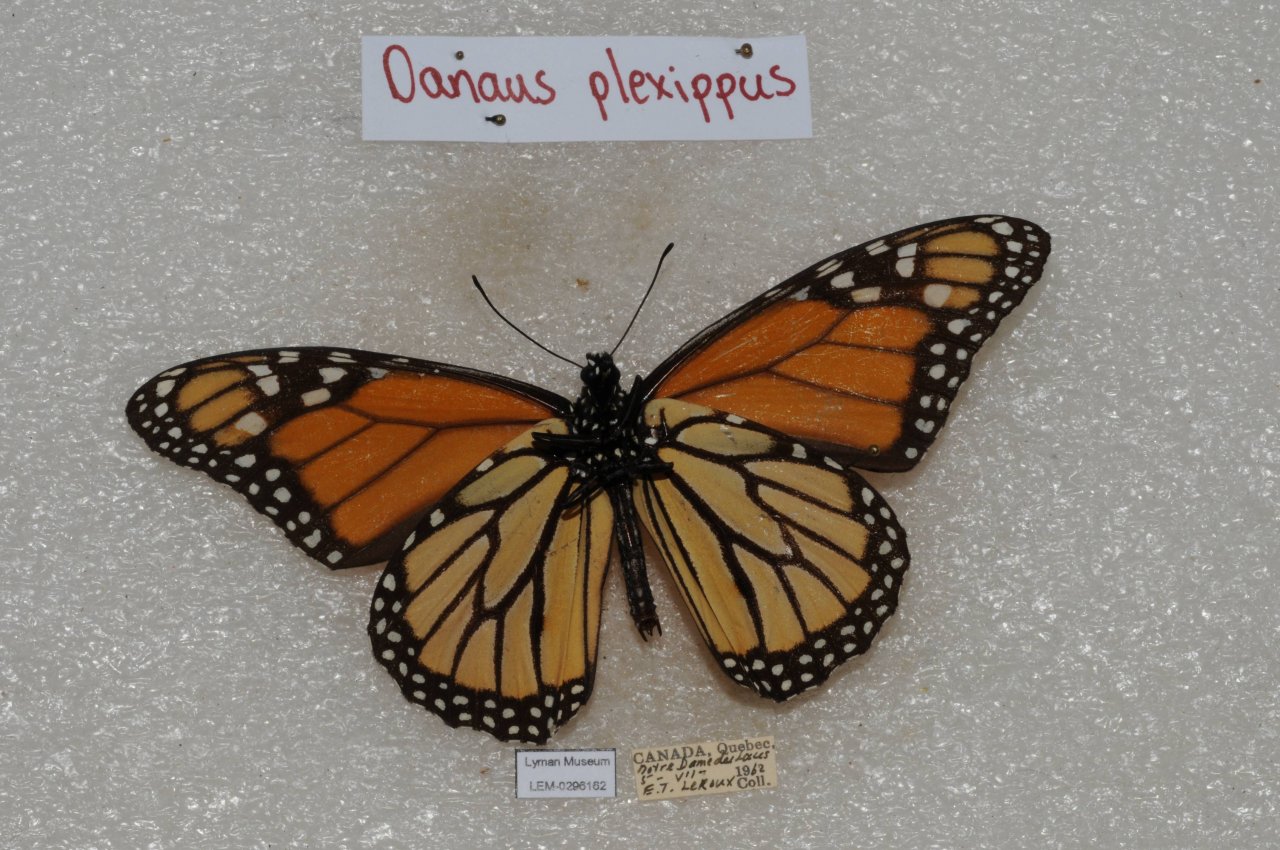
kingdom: Animalia
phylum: Arthropoda
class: Insecta
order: Lepidoptera
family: Nymphalidae
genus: Danaus
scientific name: Danaus plexippus
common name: Monarch
